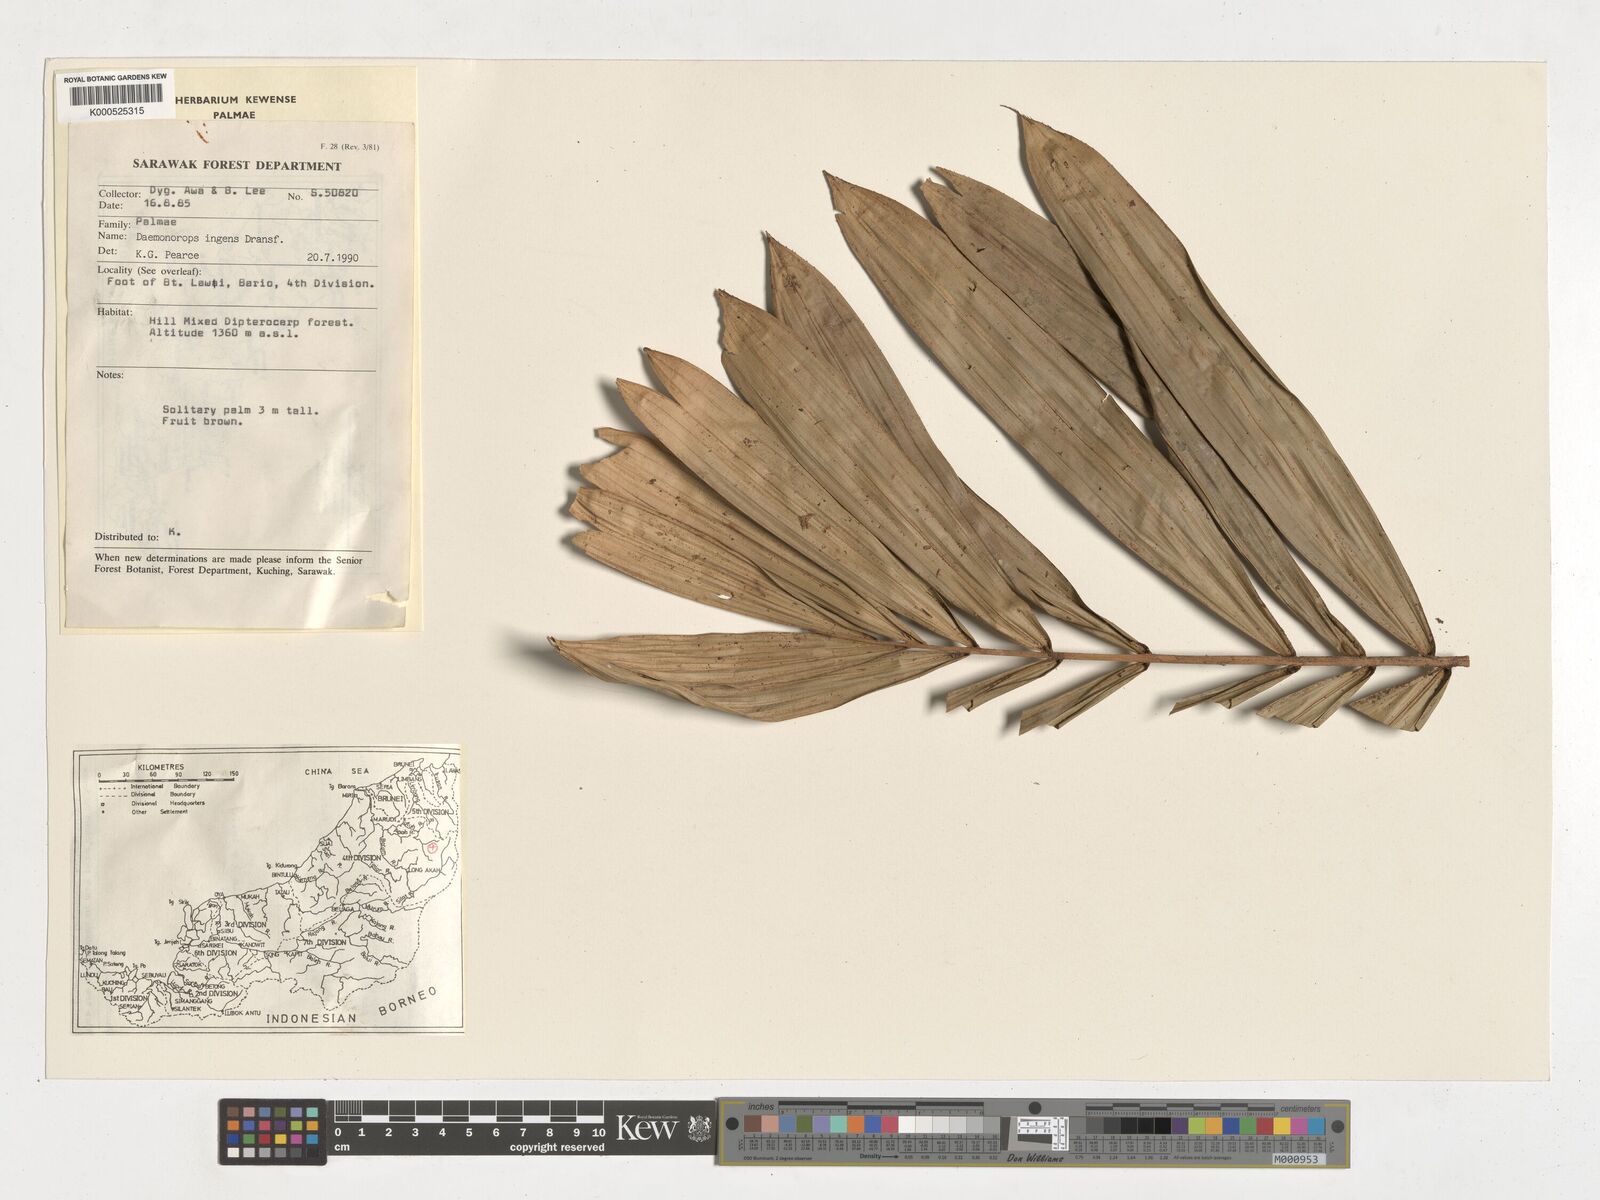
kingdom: Plantae
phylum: Tracheophyta
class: Liliopsida
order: Arecales
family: Arecaceae
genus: Calamus
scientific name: Calamus ingens
